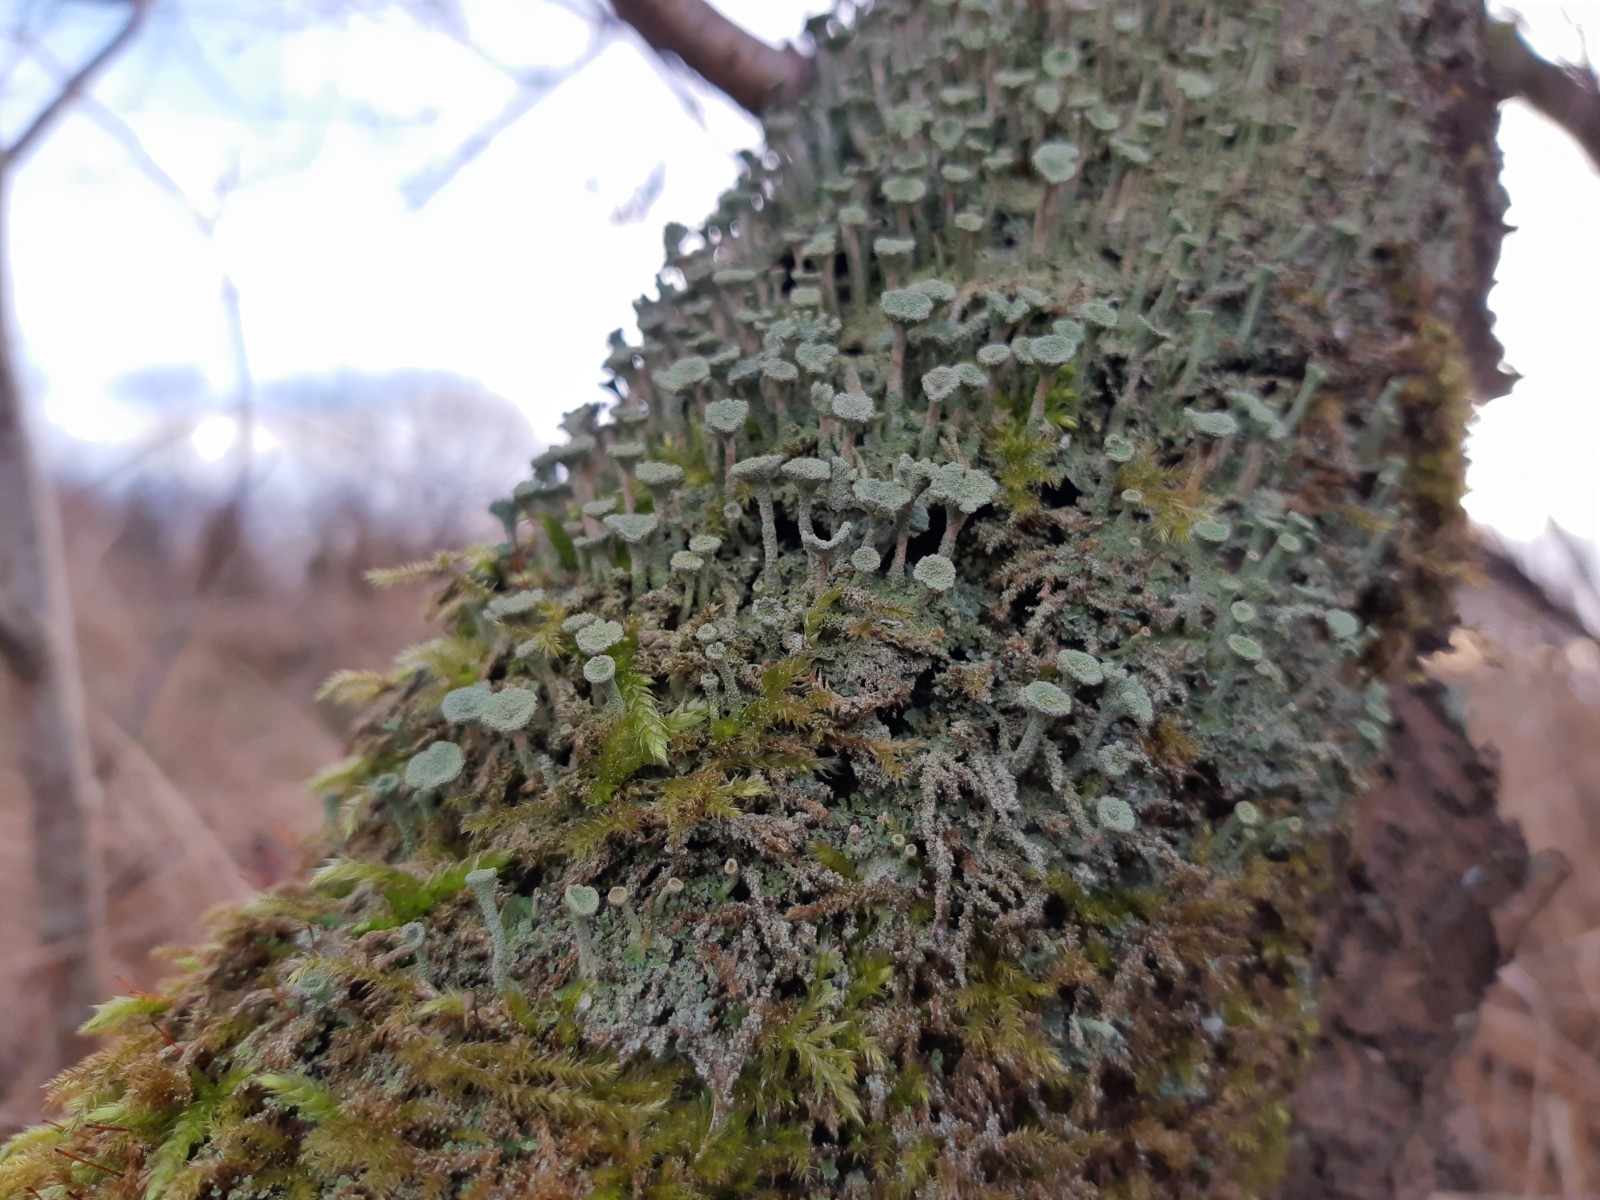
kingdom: Fungi
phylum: Ascomycota
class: Lecanoromycetes
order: Lecanorales
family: Cladoniaceae
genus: Cladonia
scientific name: Cladonia fimbriata
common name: bleggrøn bægerlav
